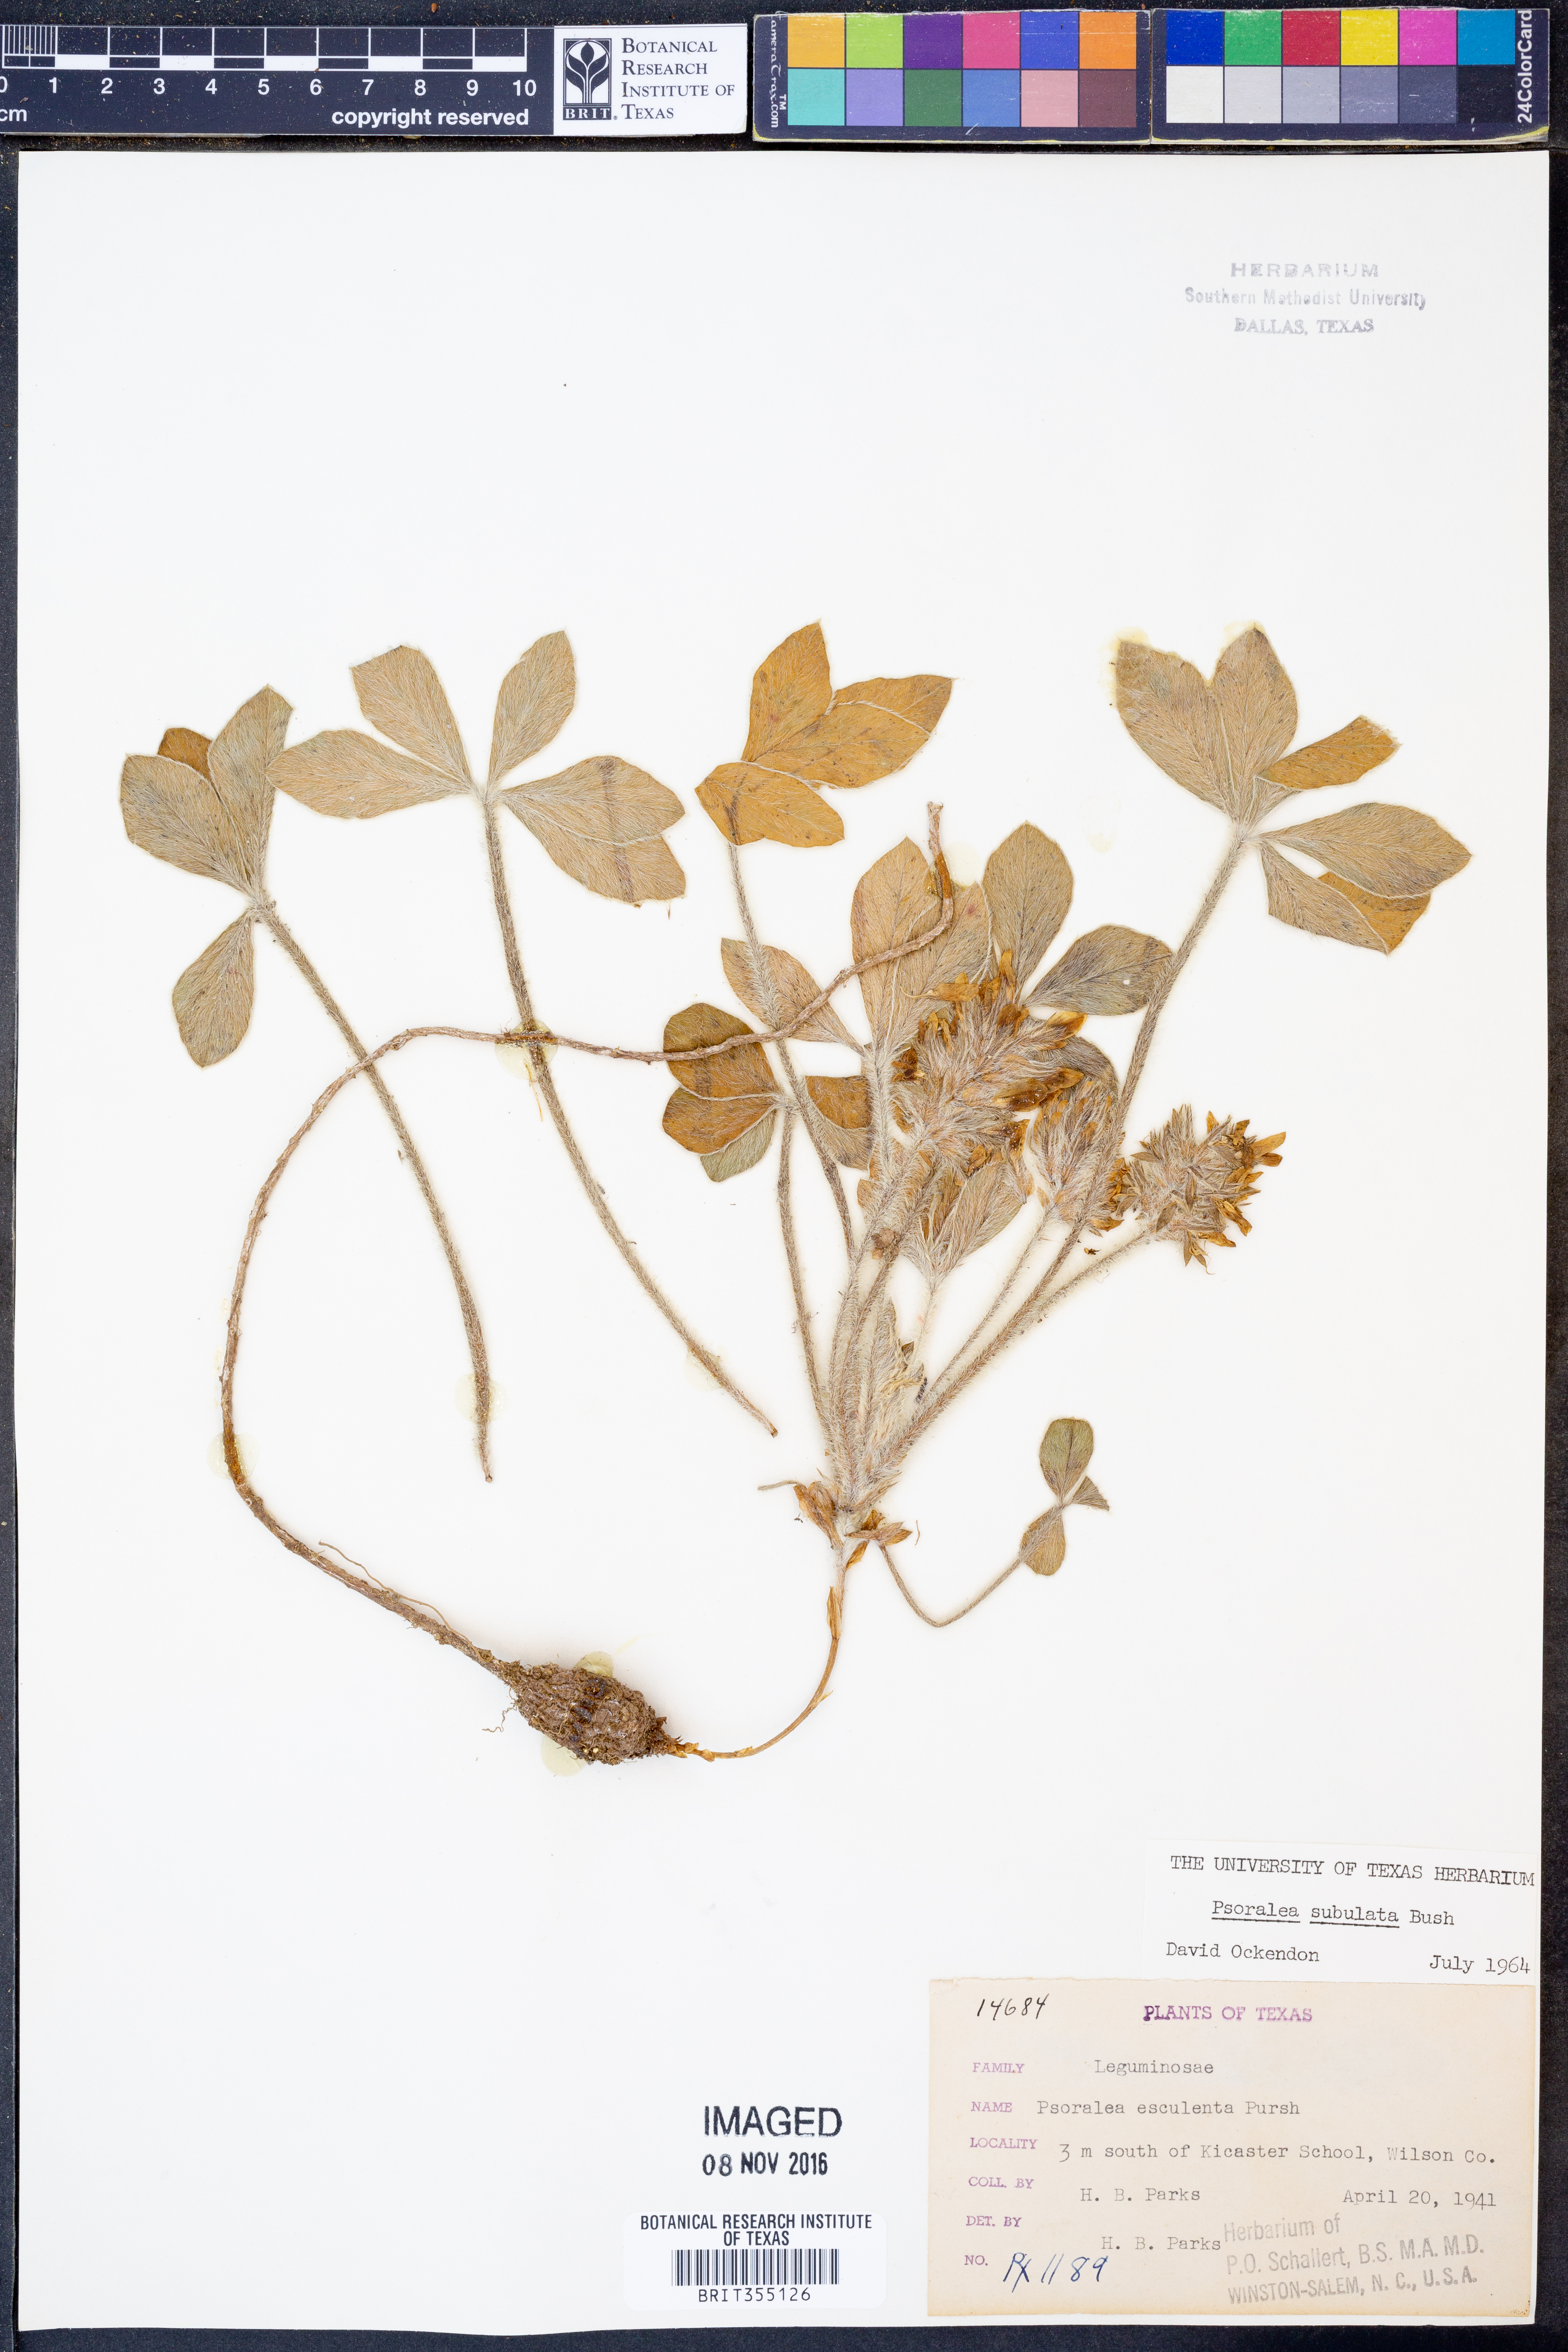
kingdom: Plantae
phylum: Tracheophyta
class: Magnoliopsida
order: Fabales
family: Fabaceae
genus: Pediomelum
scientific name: Pediomelum hypogaeum
